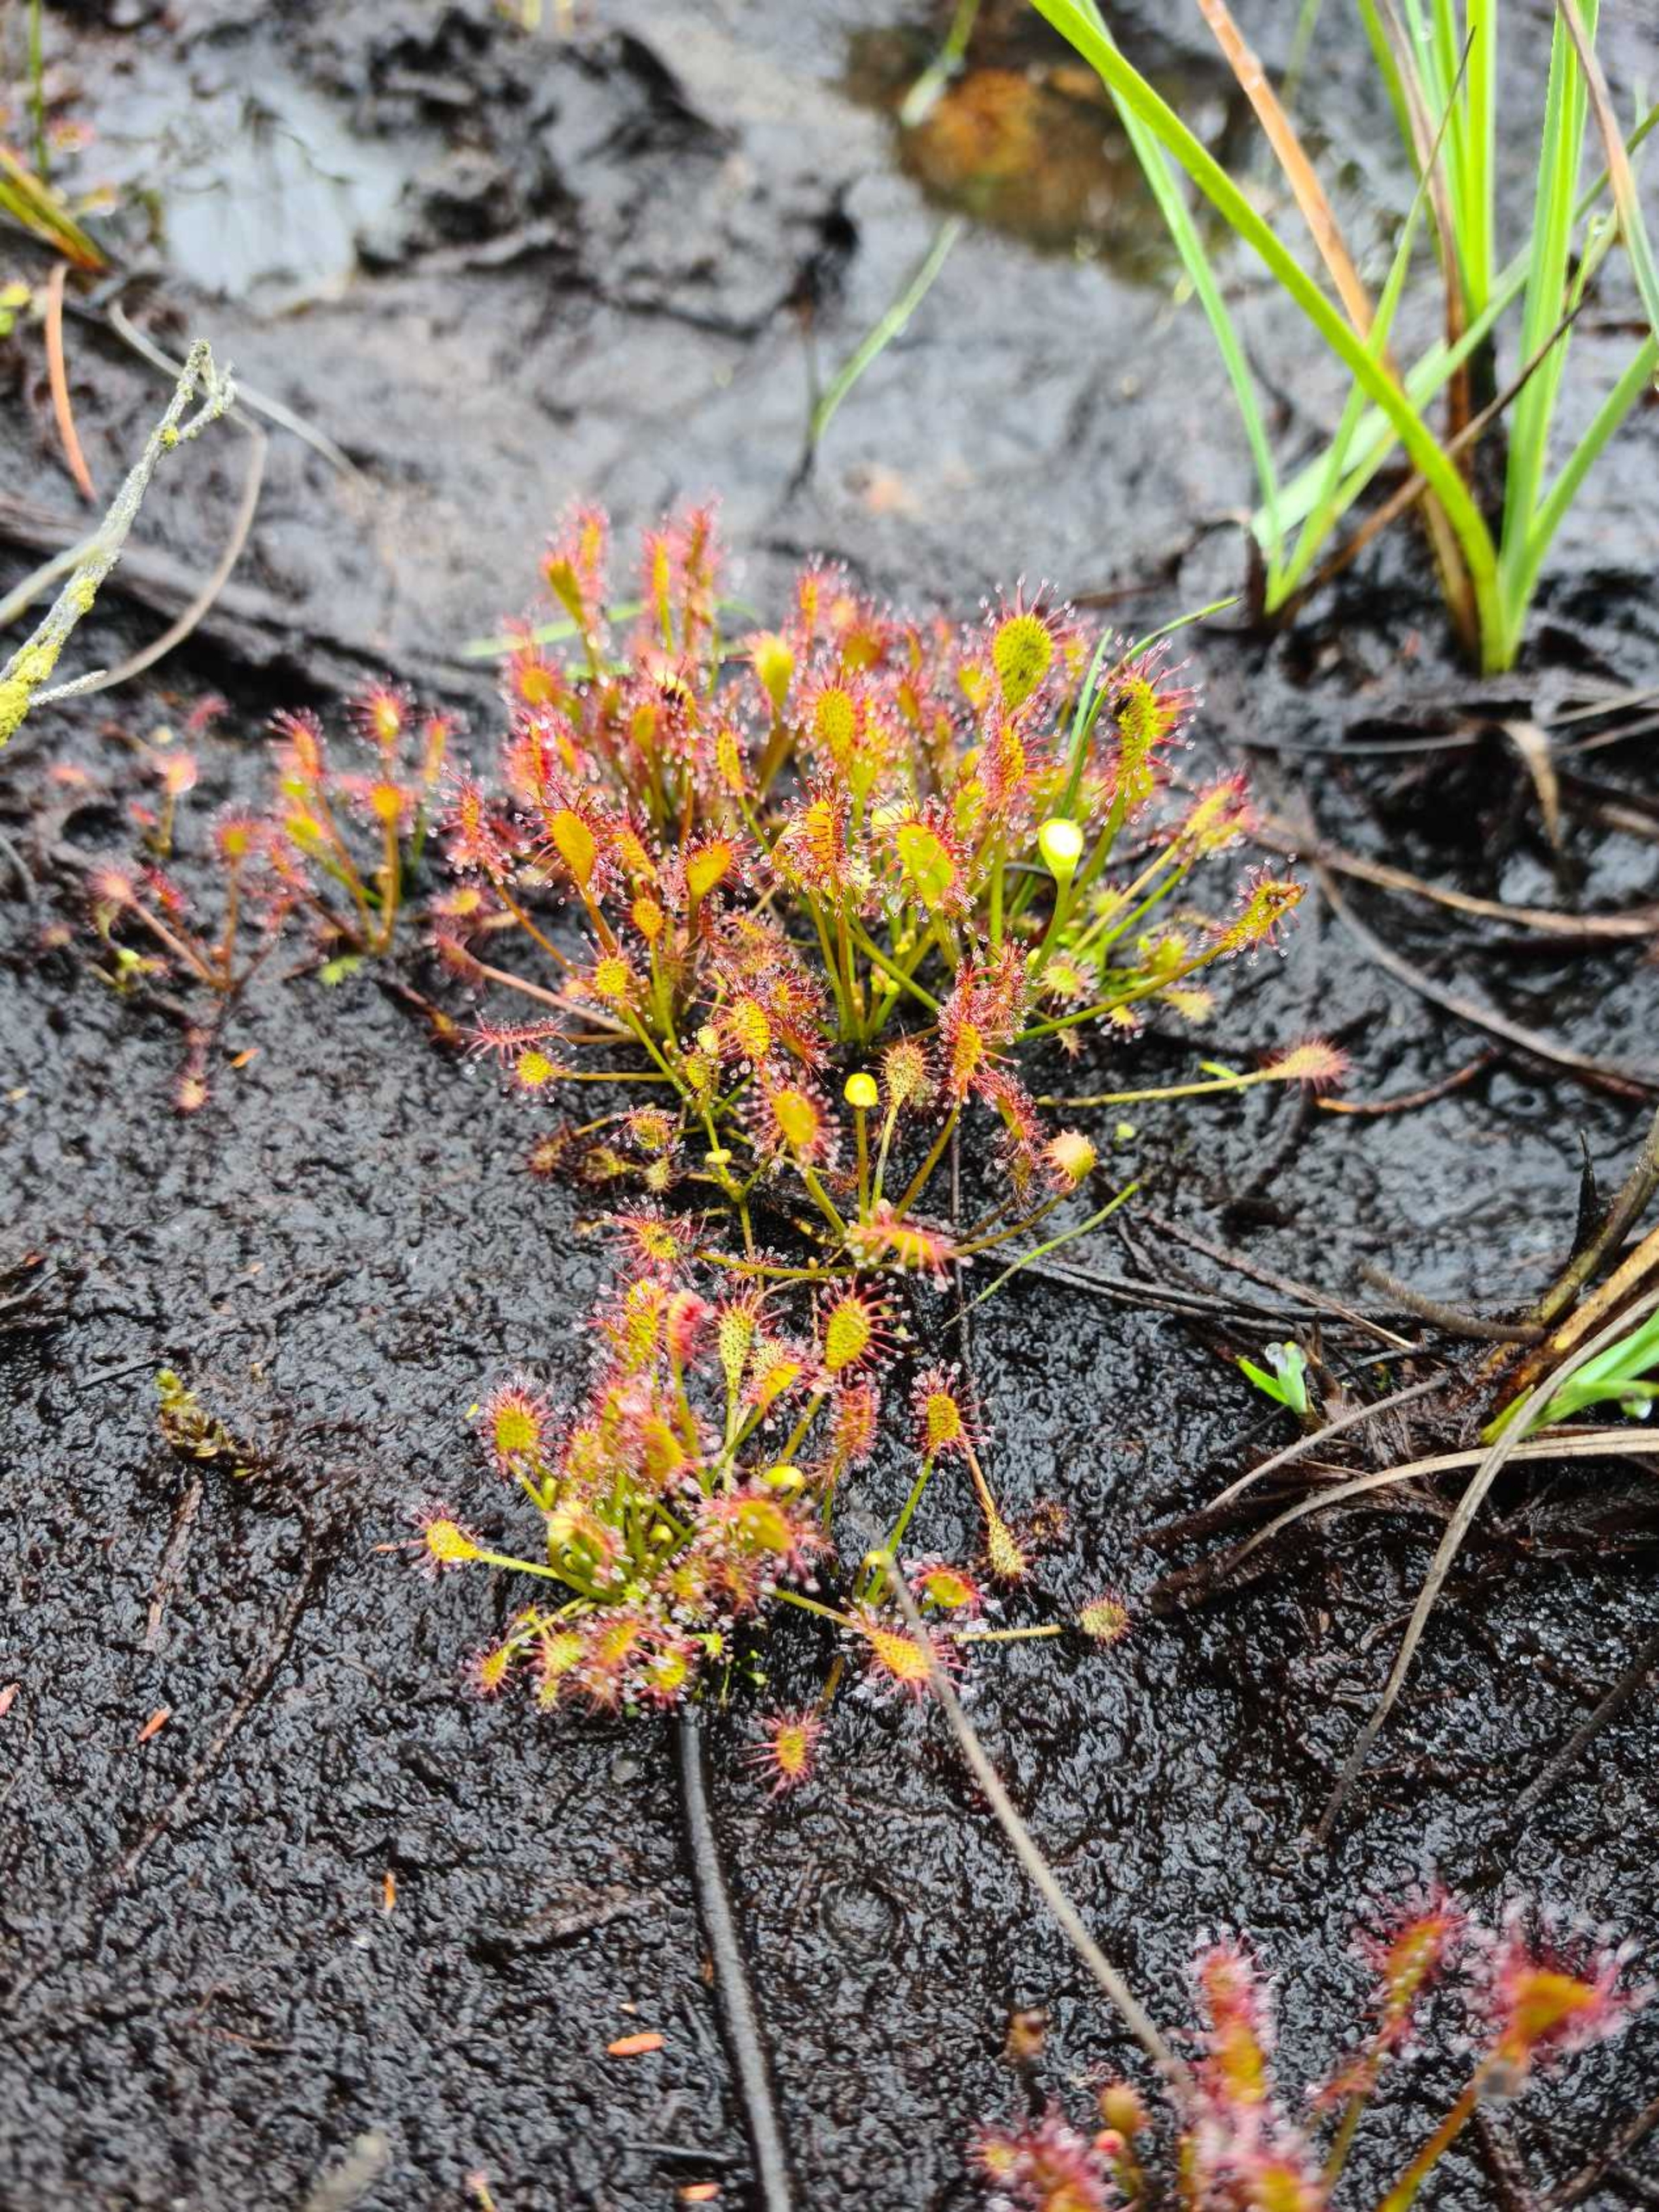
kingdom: Plantae
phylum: Tracheophyta
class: Magnoliopsida
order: Caryophyllales
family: Droseraceae
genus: Drosera
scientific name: Drosera intermedia
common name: Liden soldug
